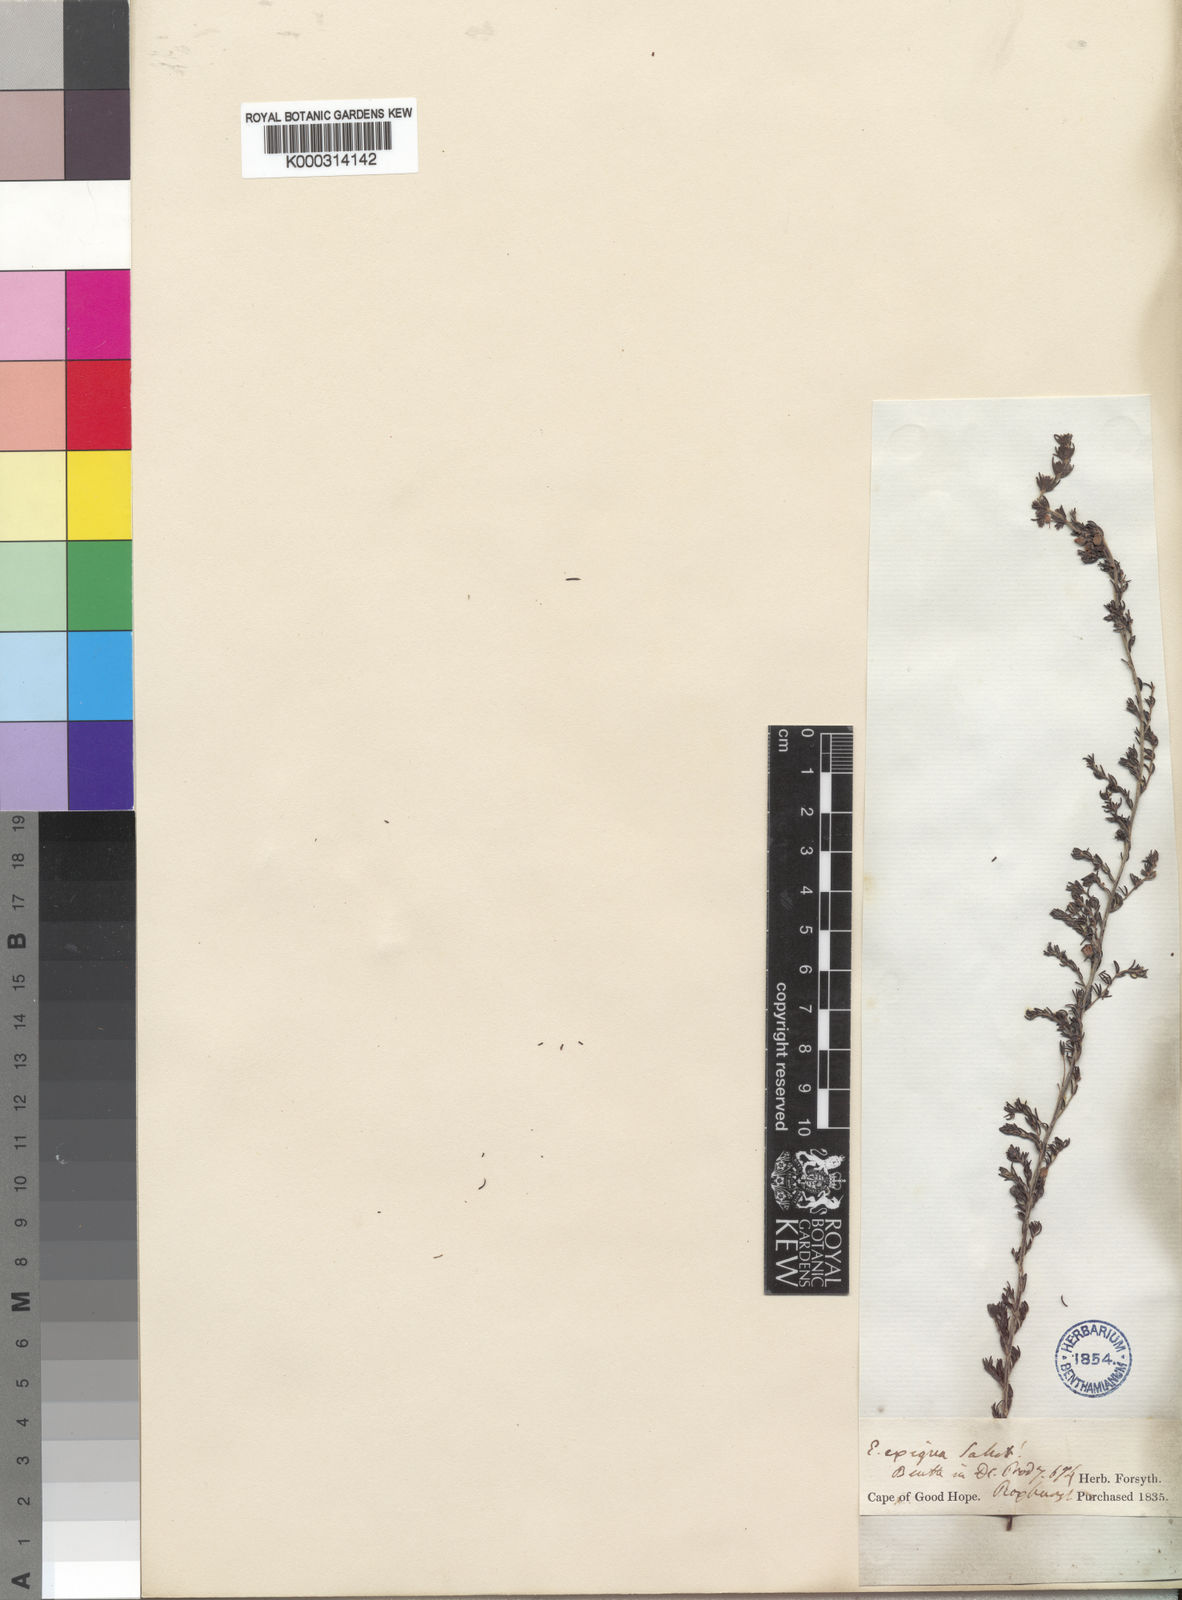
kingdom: Plantae
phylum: Tracheophyta
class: Magnoliopsida
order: Ericales
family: Ericaceae
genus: Erica
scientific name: Erica parviflora
